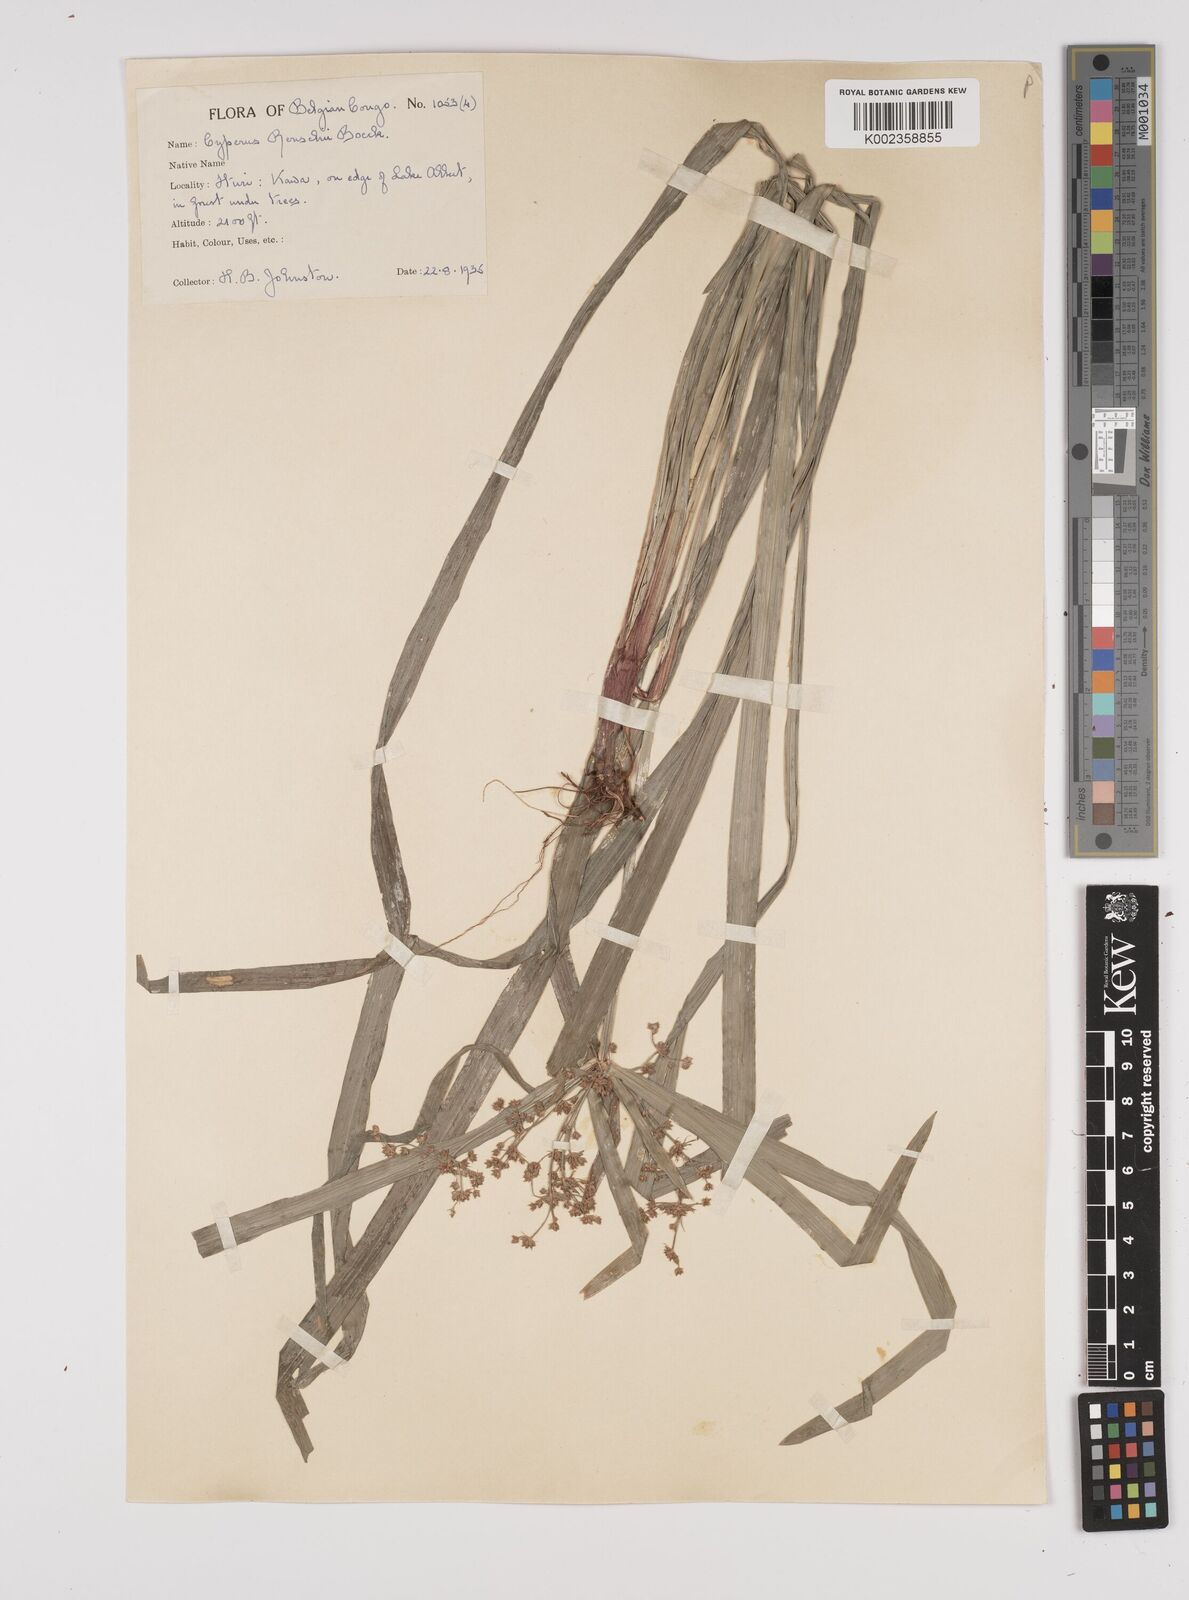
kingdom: Plantae
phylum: Tracheophyta
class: Liliopsida
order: Poales
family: Cyperaceae
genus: Cyperus
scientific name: Cyperus glaucophyllus
